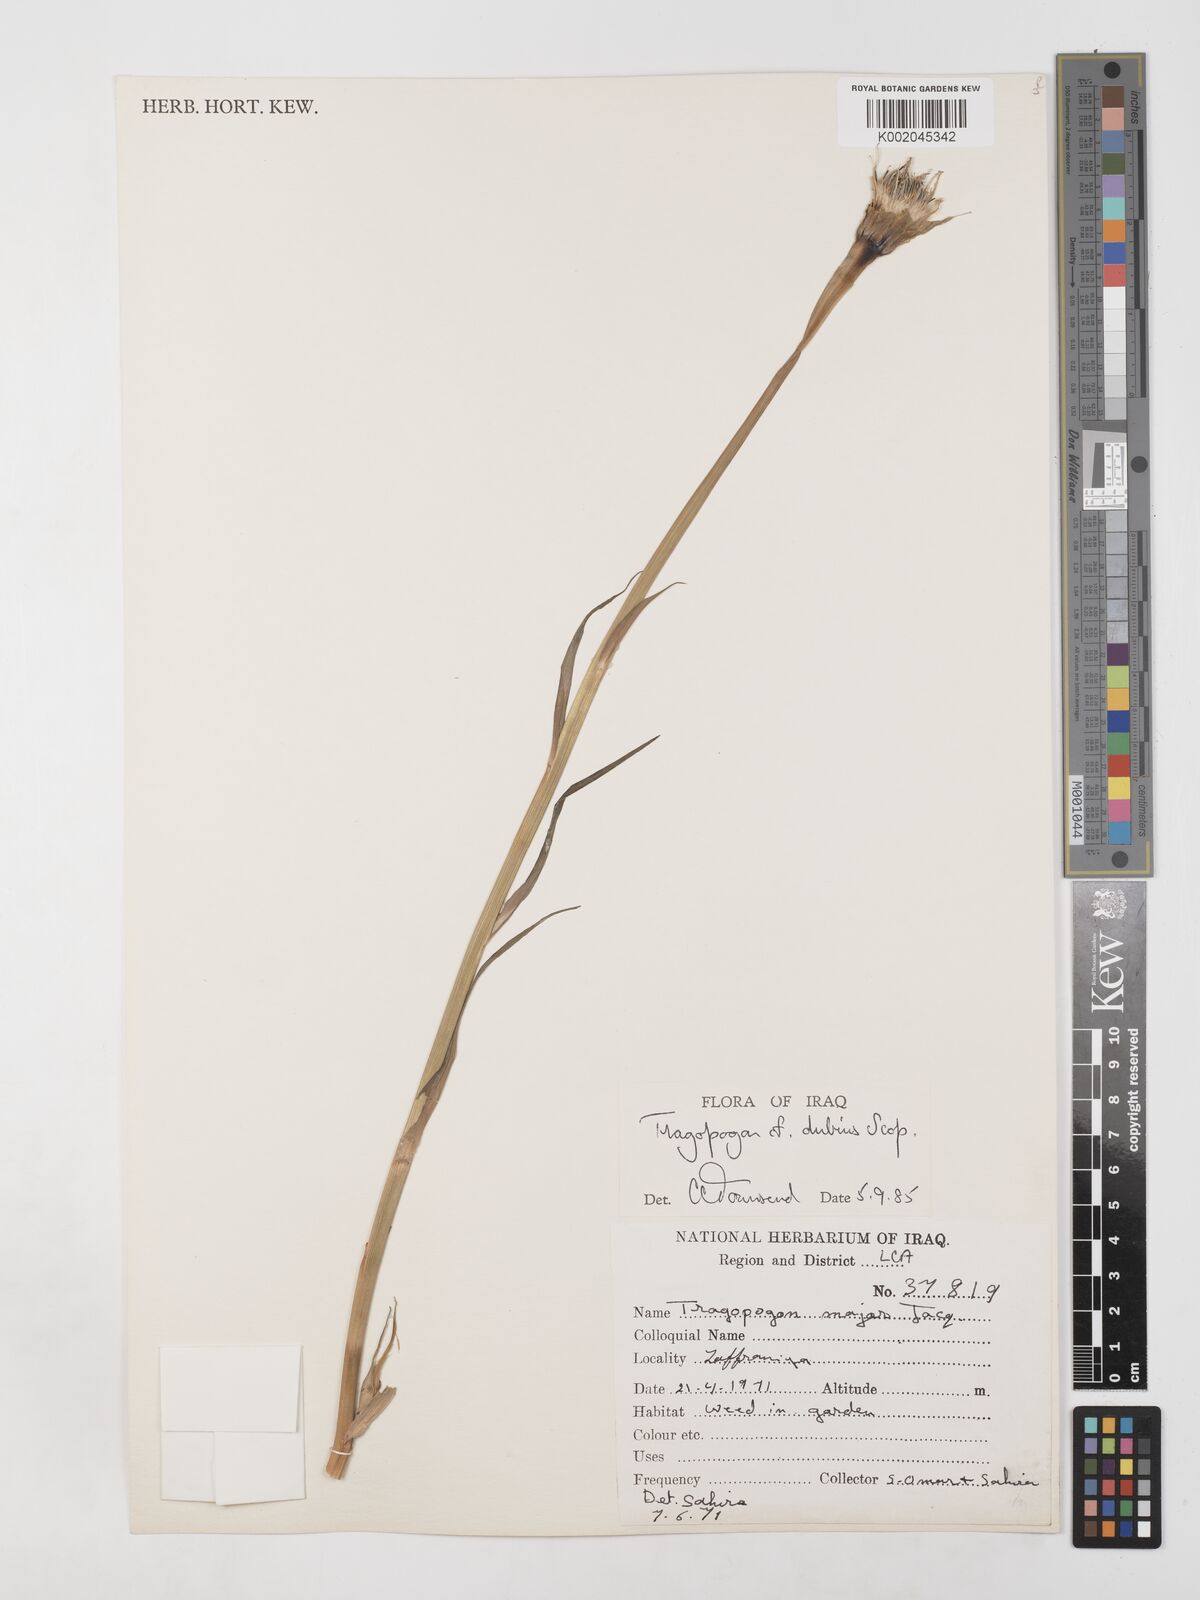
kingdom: Plantae
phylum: Tracheophyta
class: Magnoliopsida
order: Asterales
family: Asteraceae
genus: Tragopogon
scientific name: Tragopogon dubius
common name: Yellow salsify
